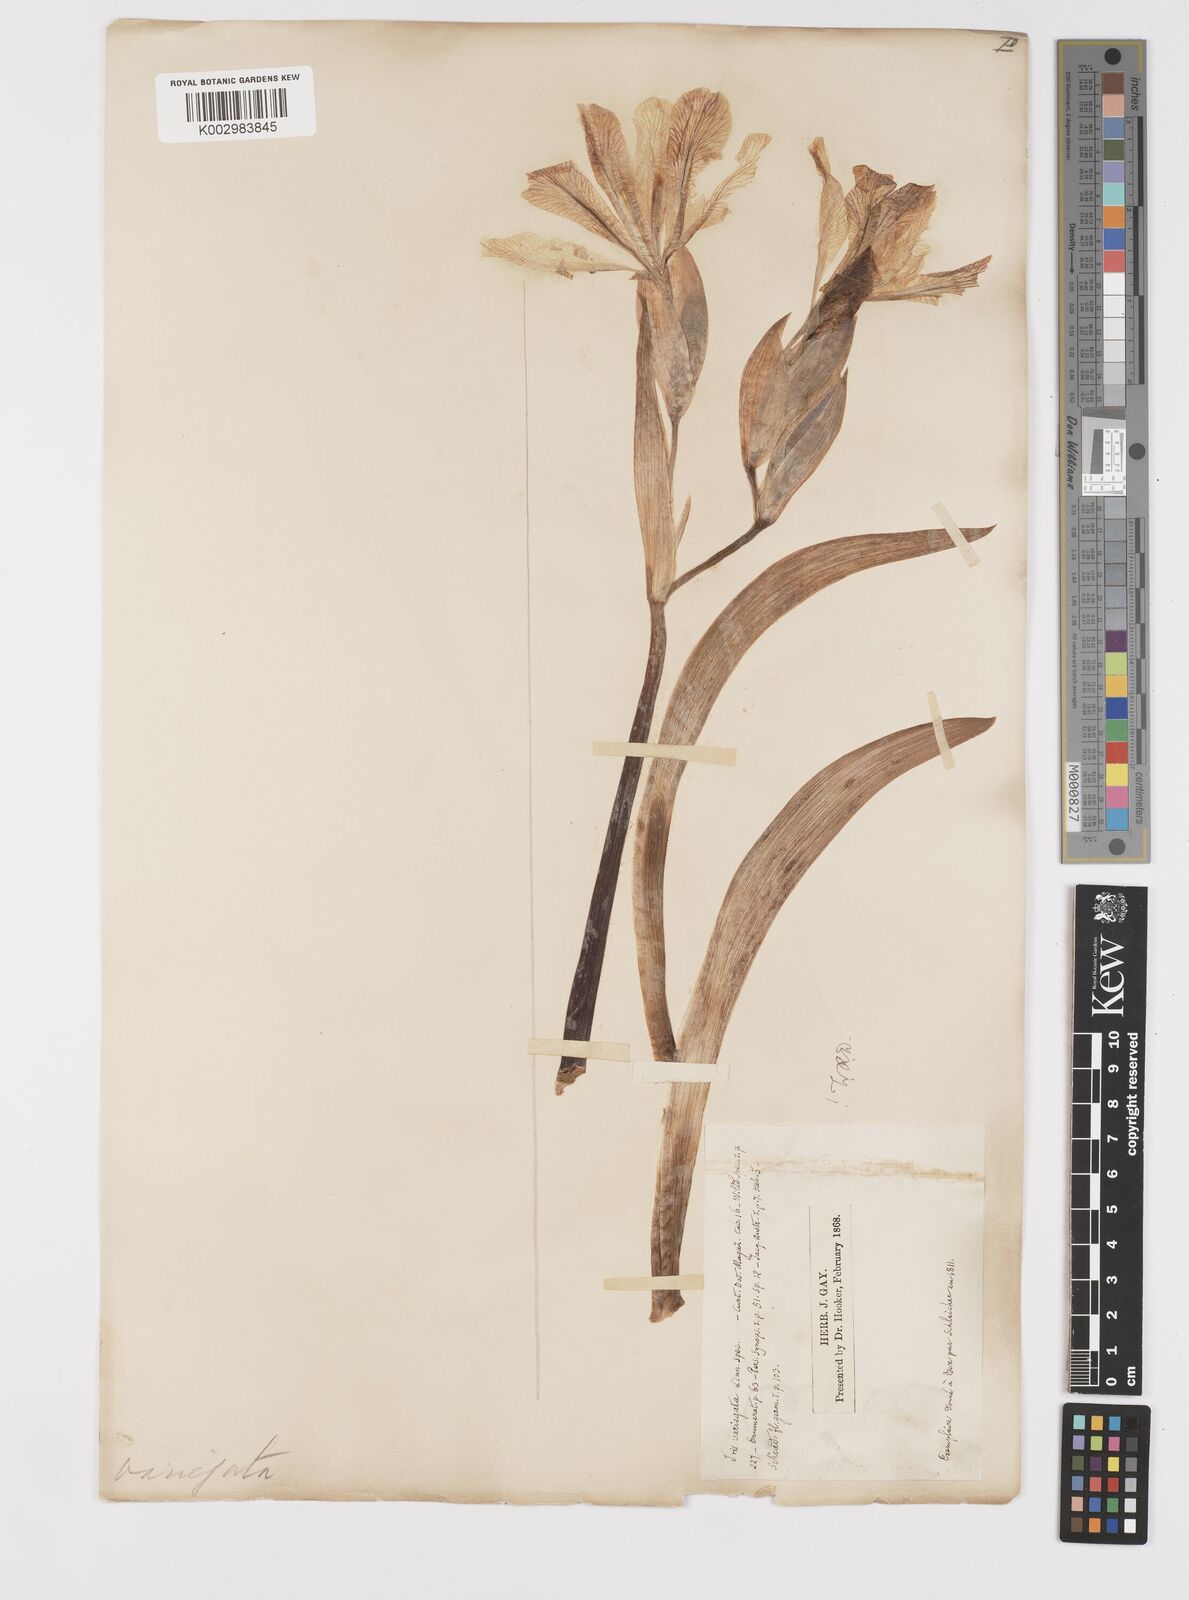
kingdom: Plantae
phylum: Tracheophyta
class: Liliopsida
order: Asparagales
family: Iridaceae
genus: Iris
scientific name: Iris variegata
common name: Hungarian iris
